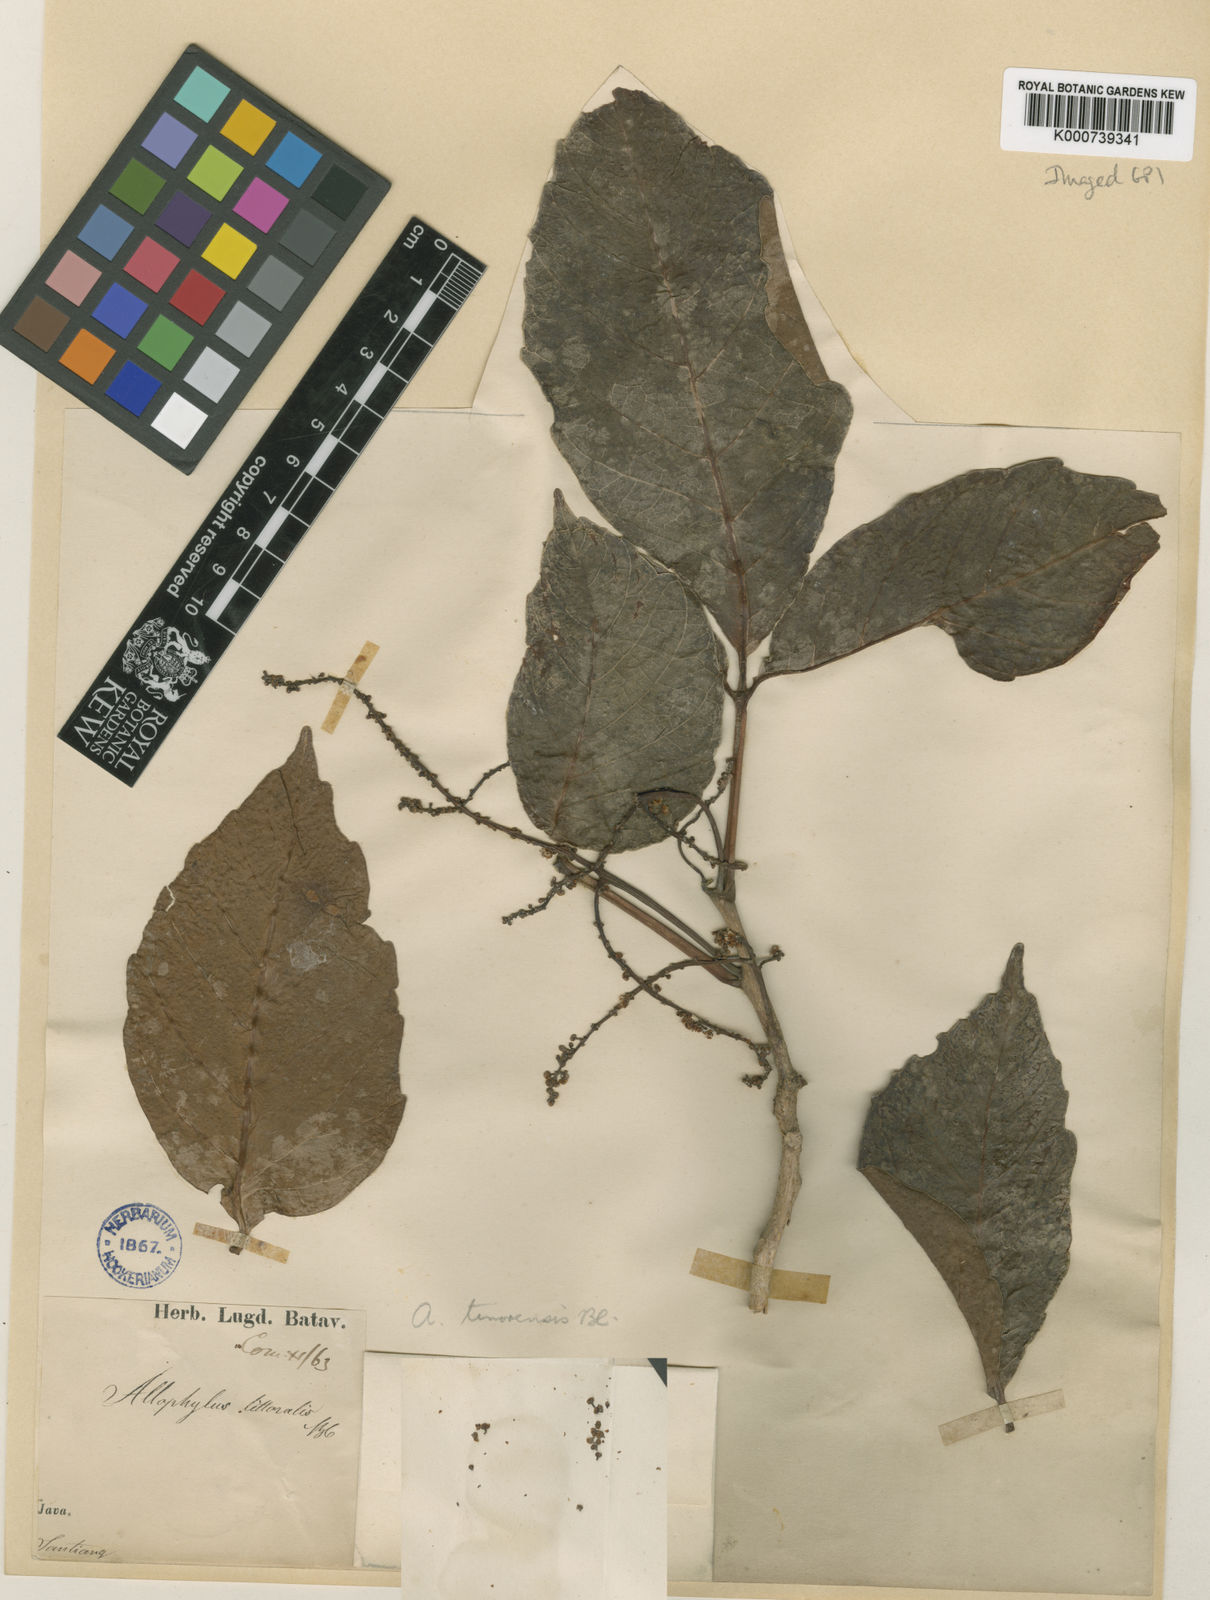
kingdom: Plantae
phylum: Tracheophyta
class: Magnoliopsida
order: Sapindales
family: Sapindaceae
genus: Allophylus
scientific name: Allophylus
